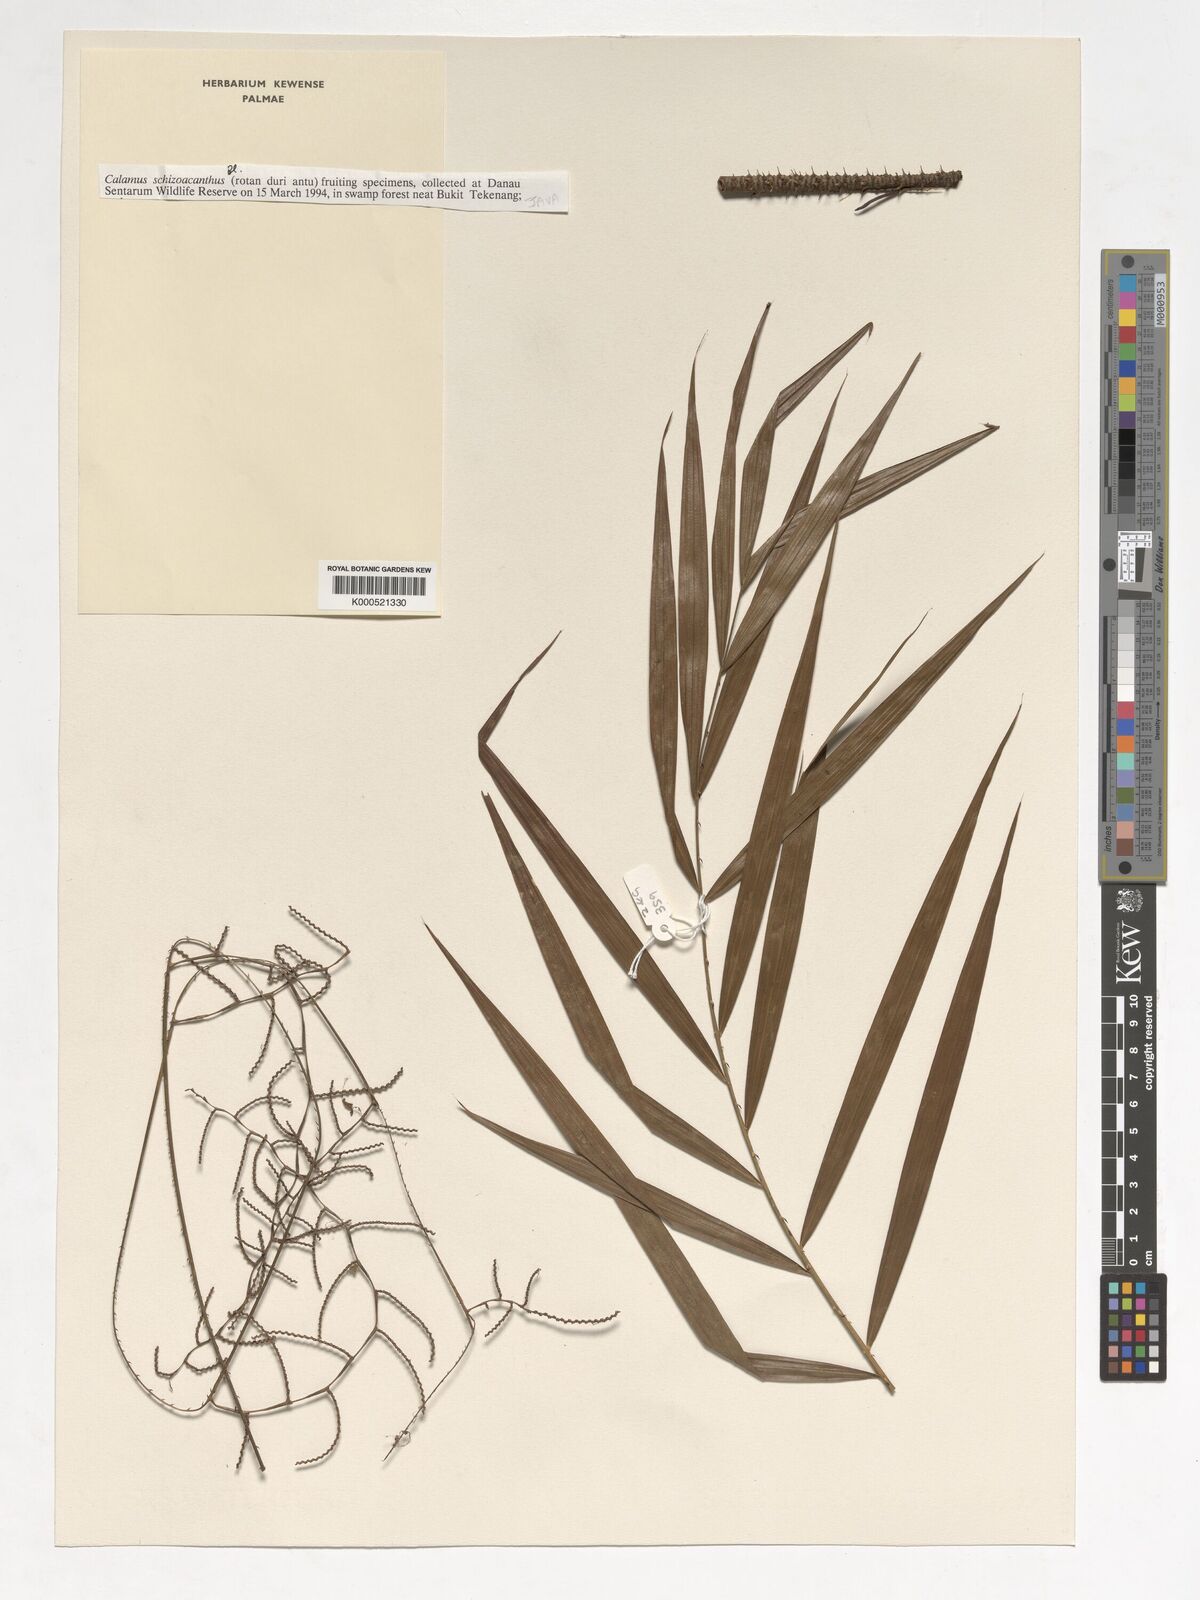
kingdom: Plantae
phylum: Tracheophyta
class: Liliopsida
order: Arecales
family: Arecaceae
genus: Calamus
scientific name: Calamus schistoacanthus
